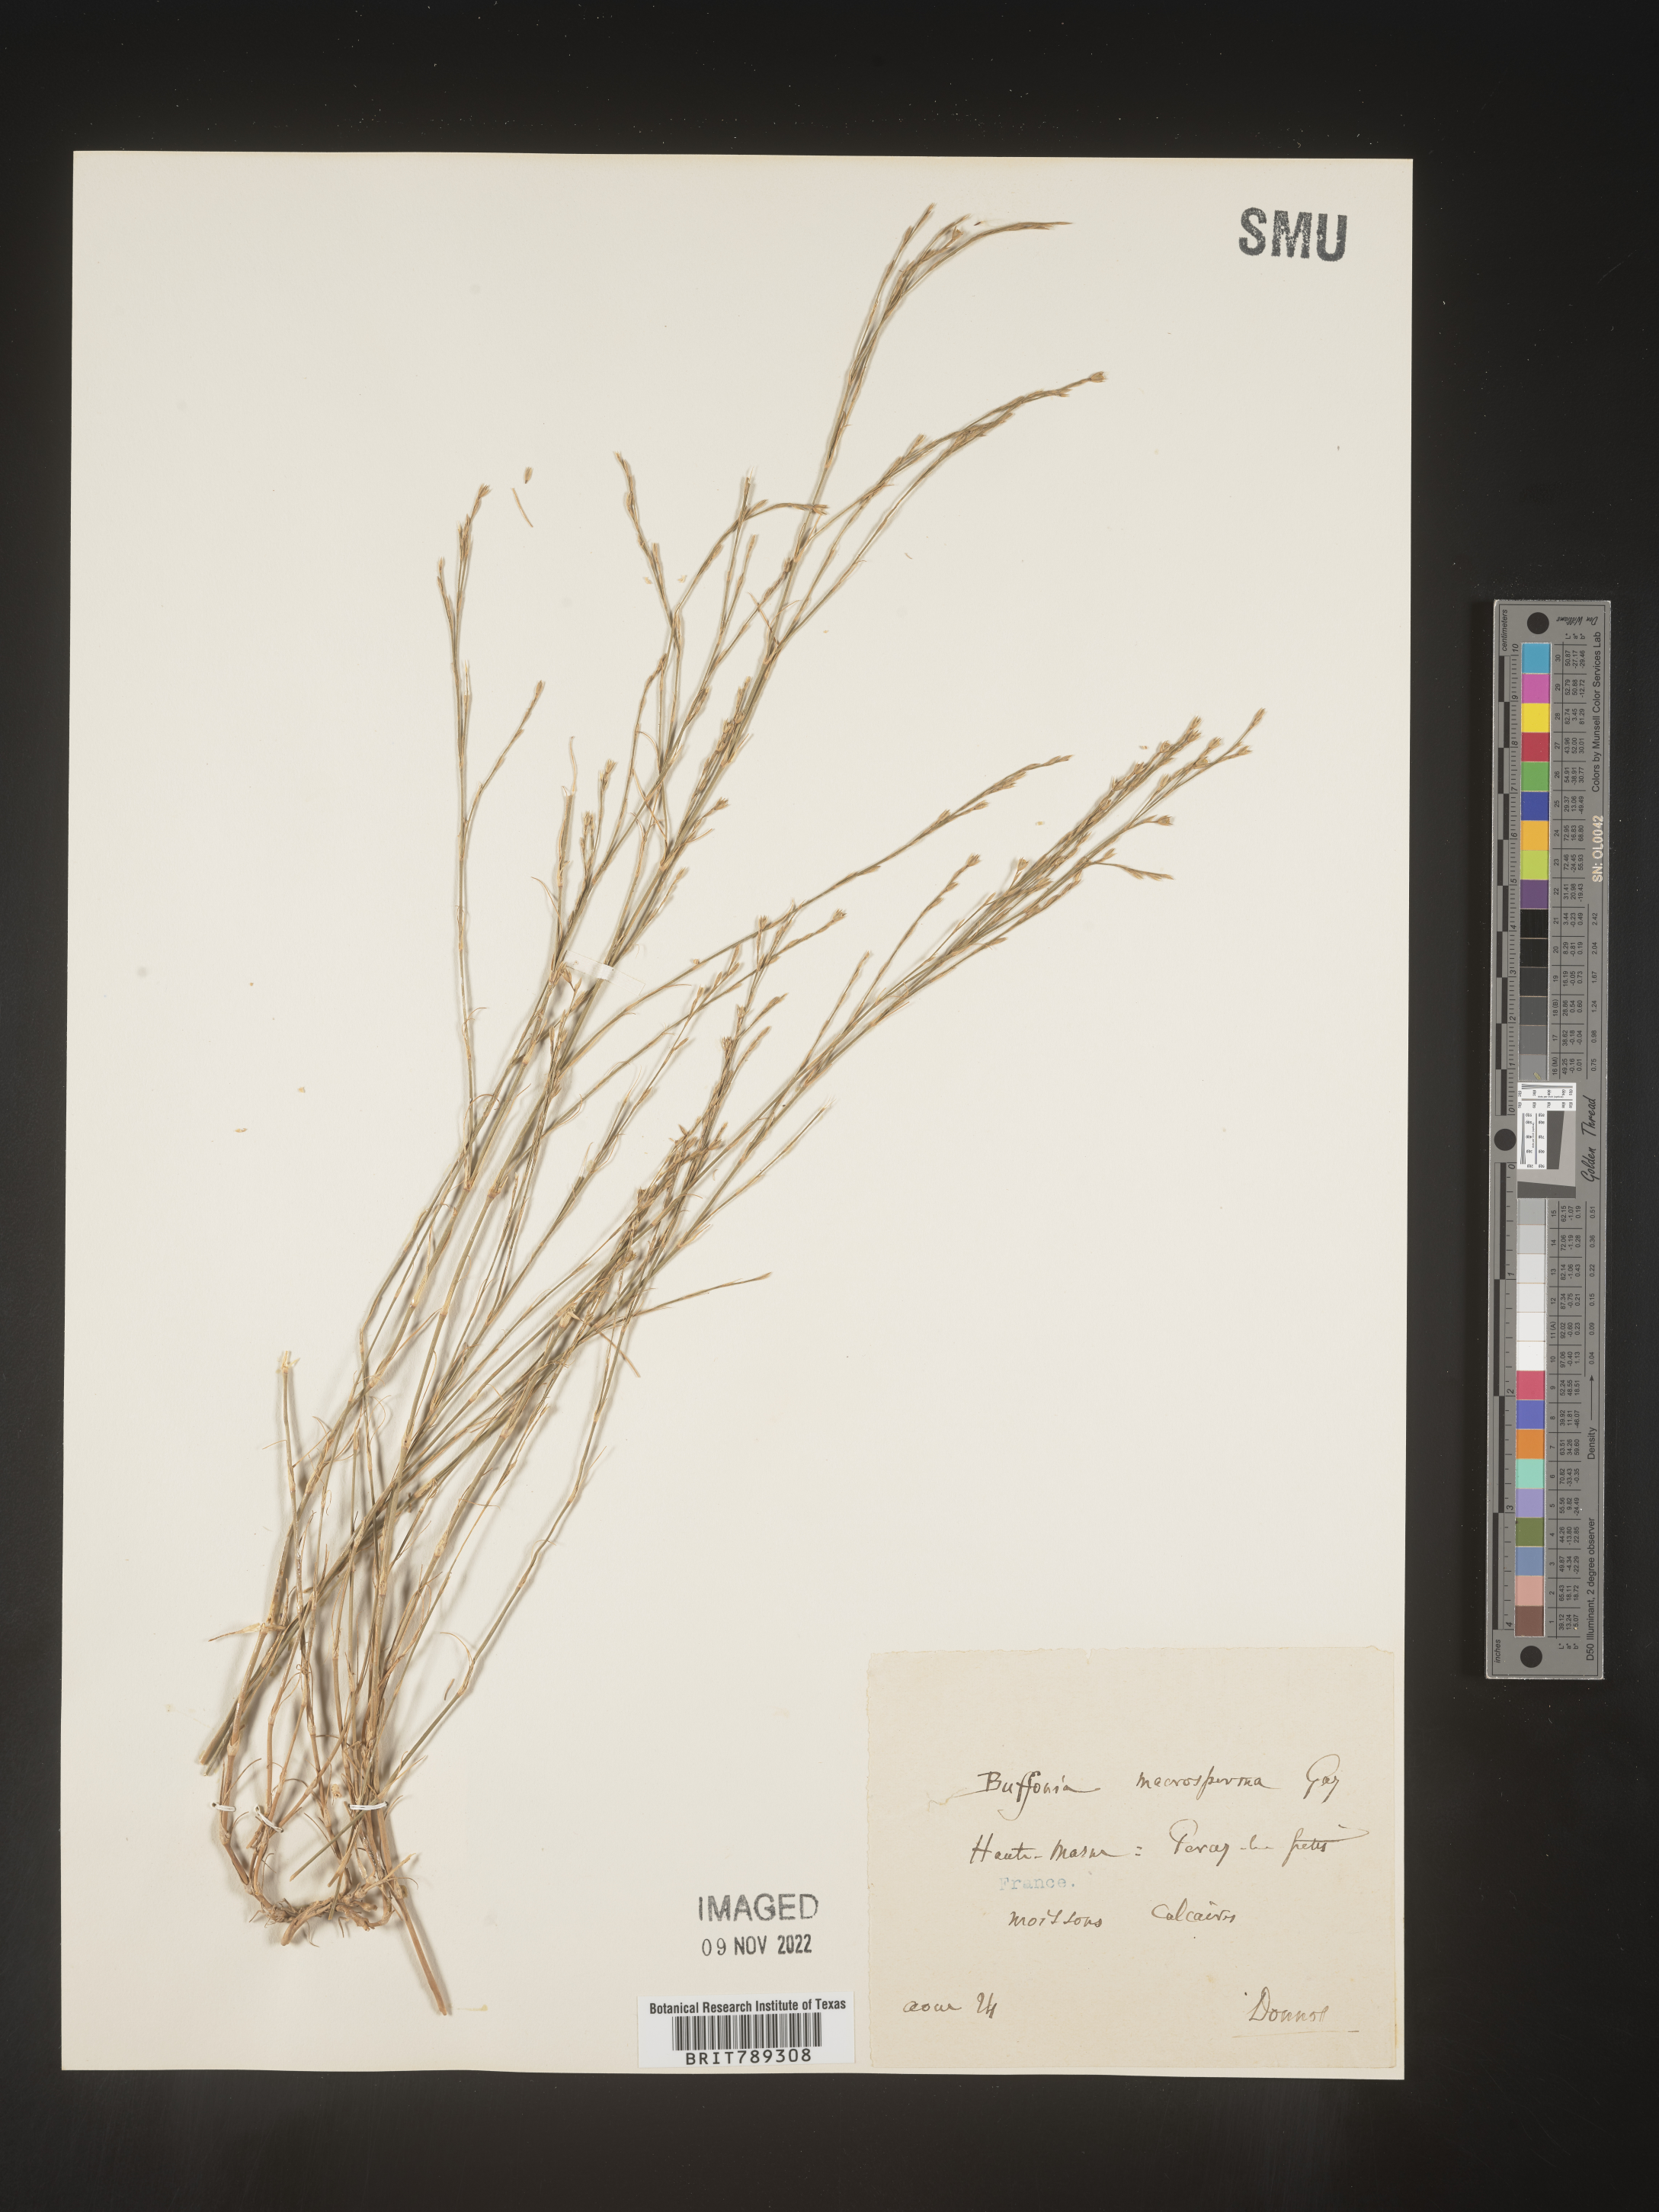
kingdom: Plantae
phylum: Tracheophyta
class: Magnoliopsida
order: Caryophyllales
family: Caryophyllaceae
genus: Buffonia
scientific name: Buffonia
